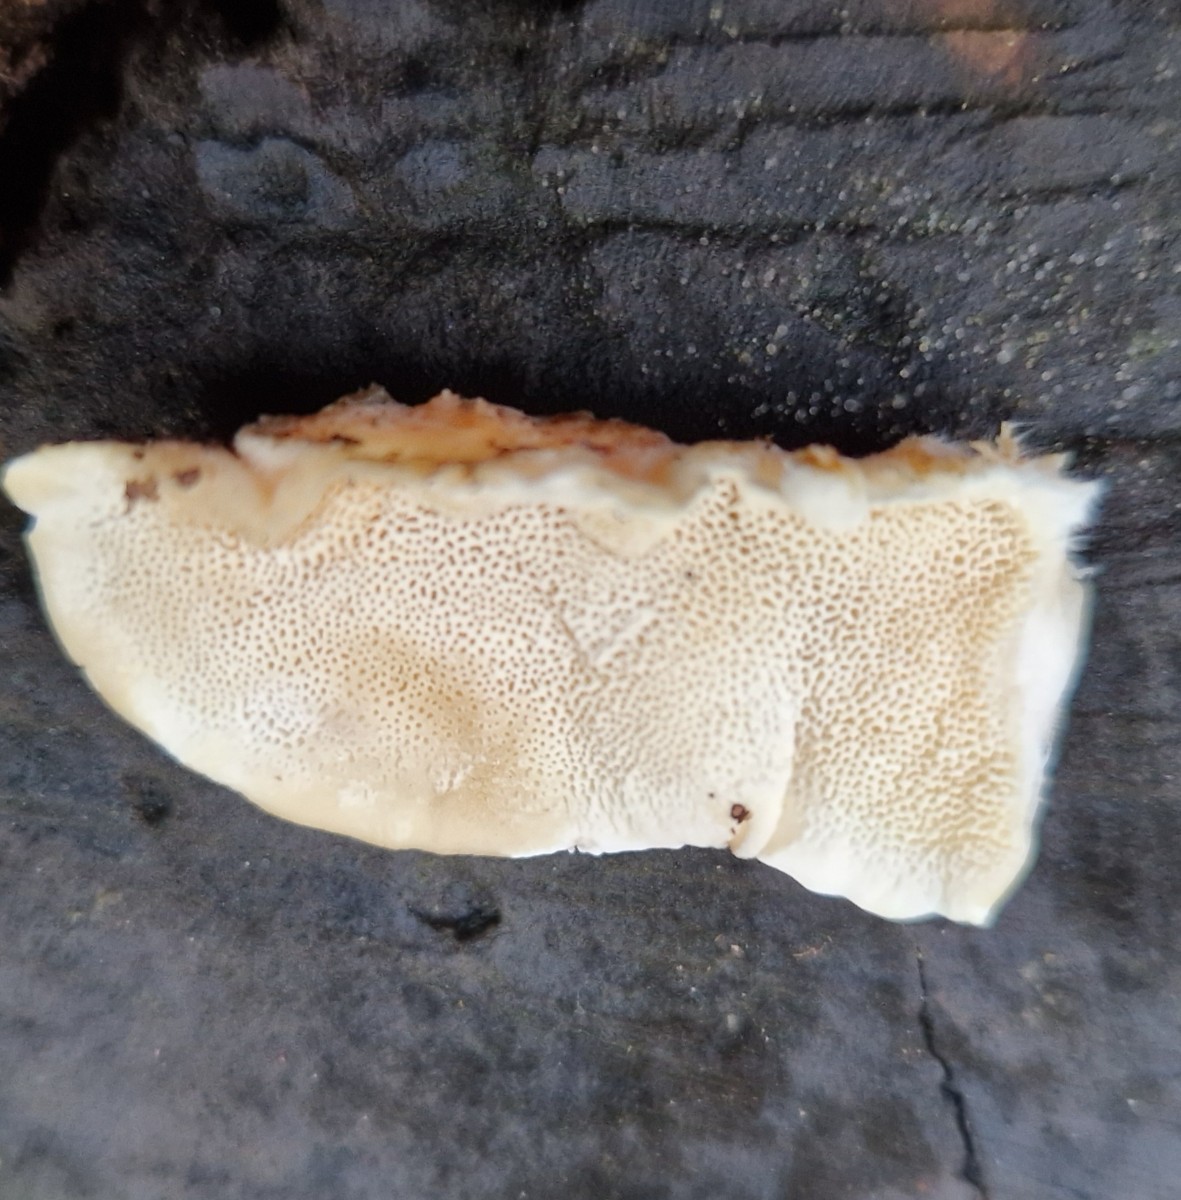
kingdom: Fungi
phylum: Basidiomycota
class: Agaricomycetes
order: Polyporales
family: Polyporaceae
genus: Trametes
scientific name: Trametes ochracea
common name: bæltet læderporesvamp
